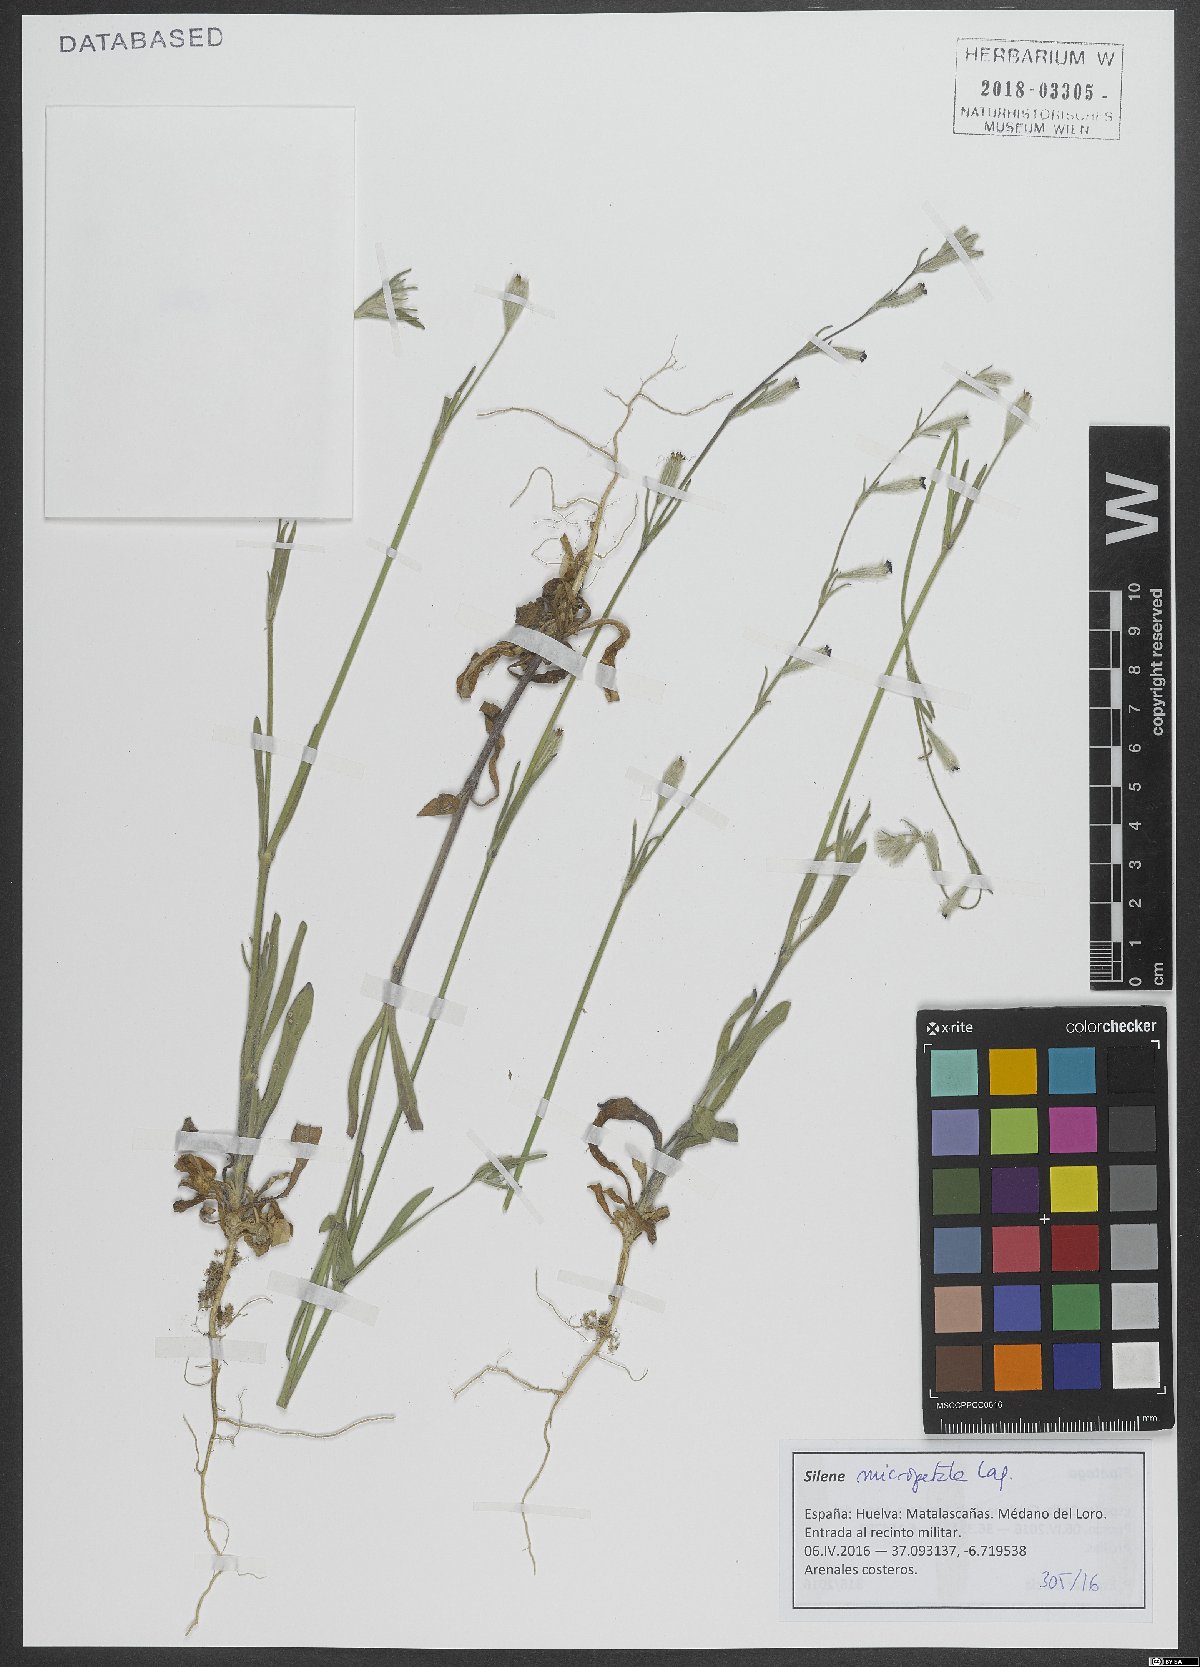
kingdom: Plantae
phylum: Tracheophyta
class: Magnoliopsida
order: Caryophyllales
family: Caryophyllaceae
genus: Silene
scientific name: Silene micropetala
